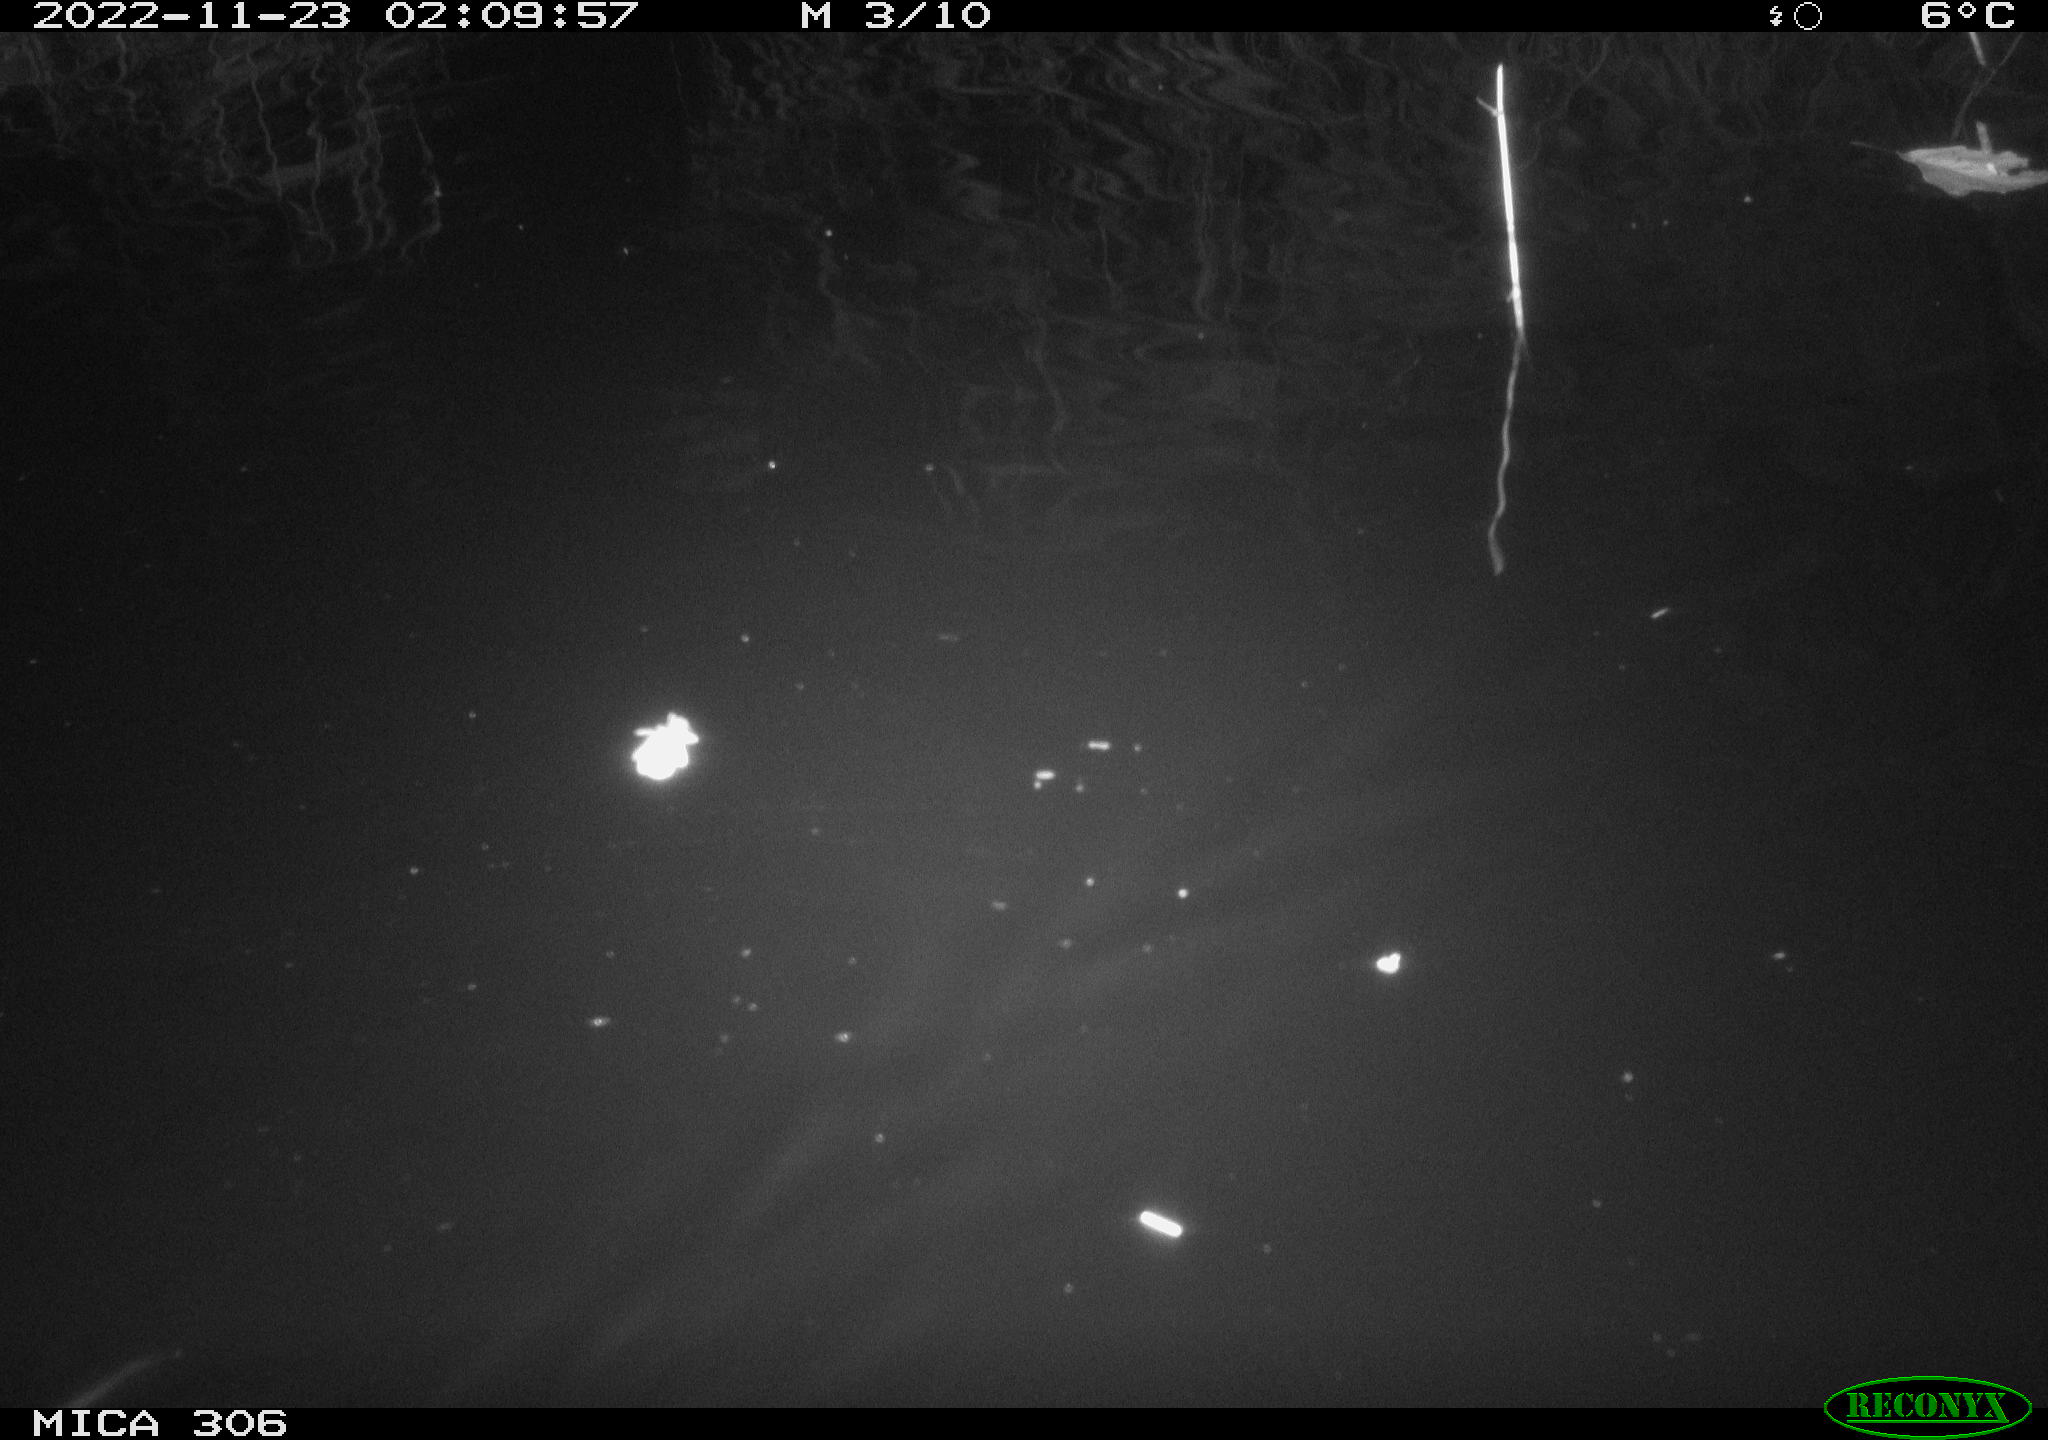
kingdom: Animalia
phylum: Chordata
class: Mammalia
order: Rodentia
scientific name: Rodentia
